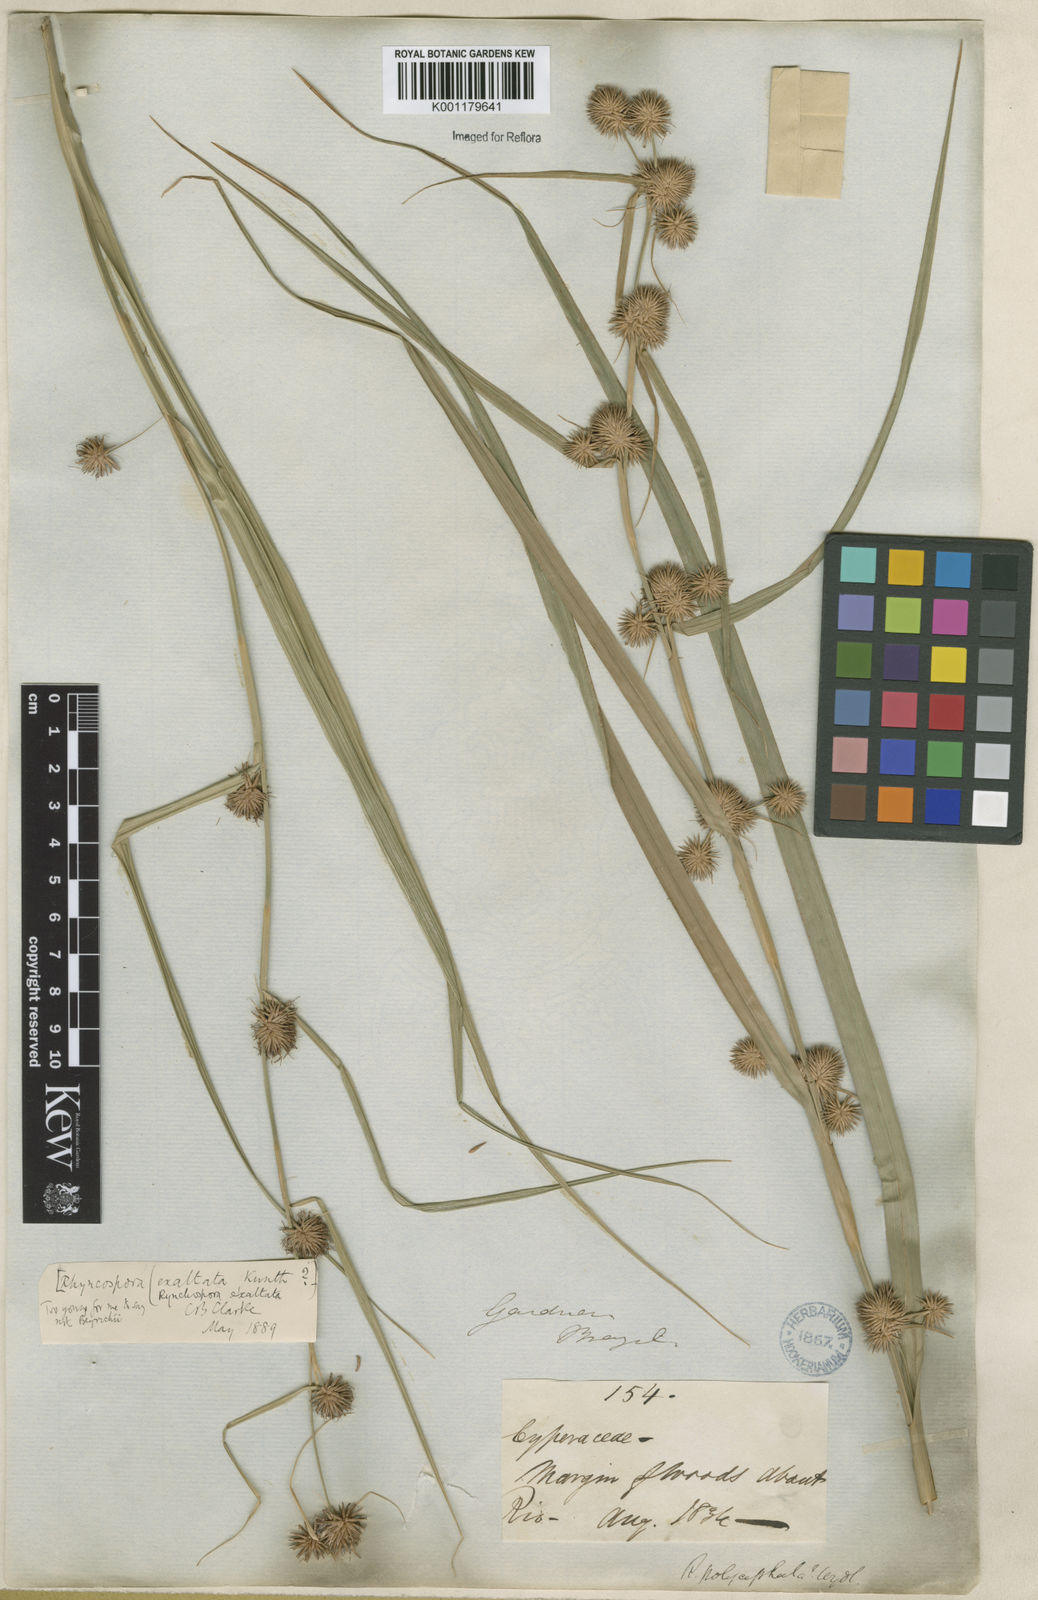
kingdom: Plantae
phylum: Tracheophyta
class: Liliopsida
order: Poales
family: Cyperaceae
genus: Rhynchospora
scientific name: Rhynchospora exaltata
